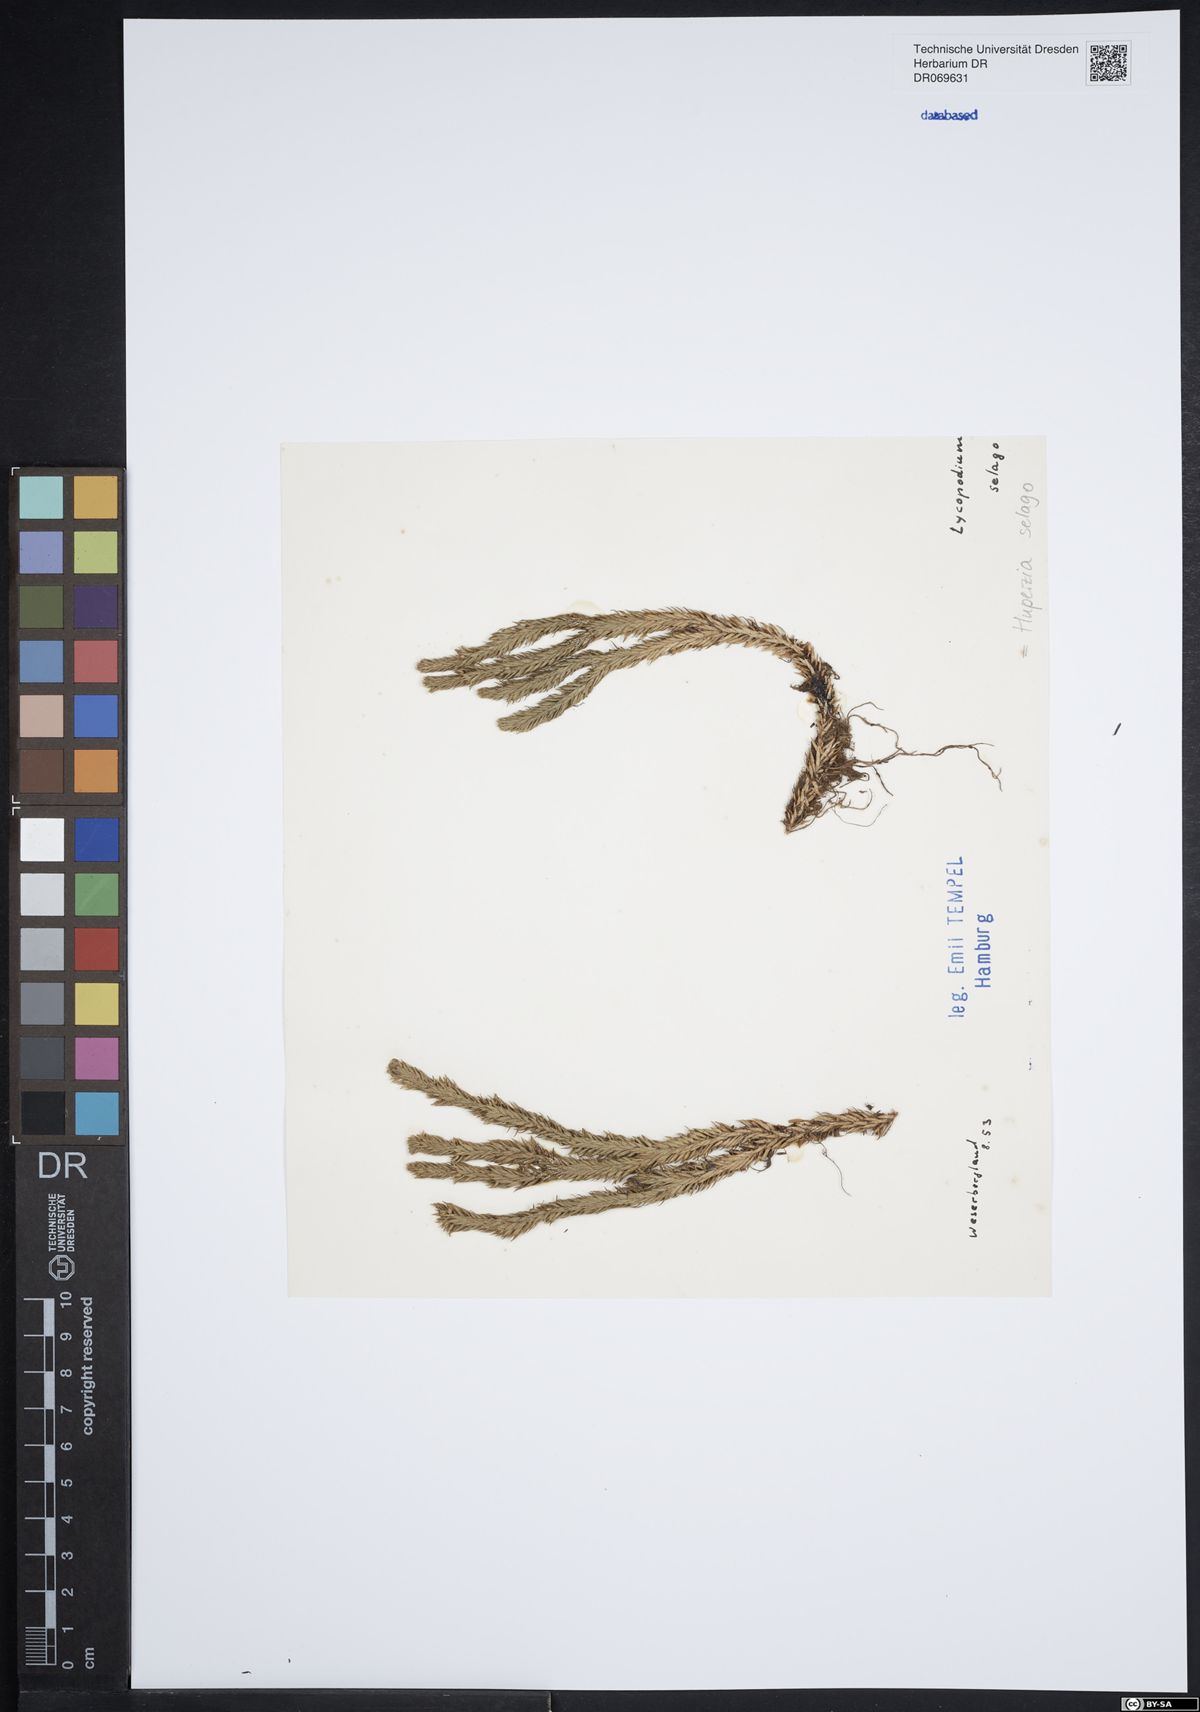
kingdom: Plantae
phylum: Tracheophyta
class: Lycopodiopsida
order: Lycopodiales
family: Lycopodiaceae
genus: Huperzia
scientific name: Huperzia selago
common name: Northern firmoss
